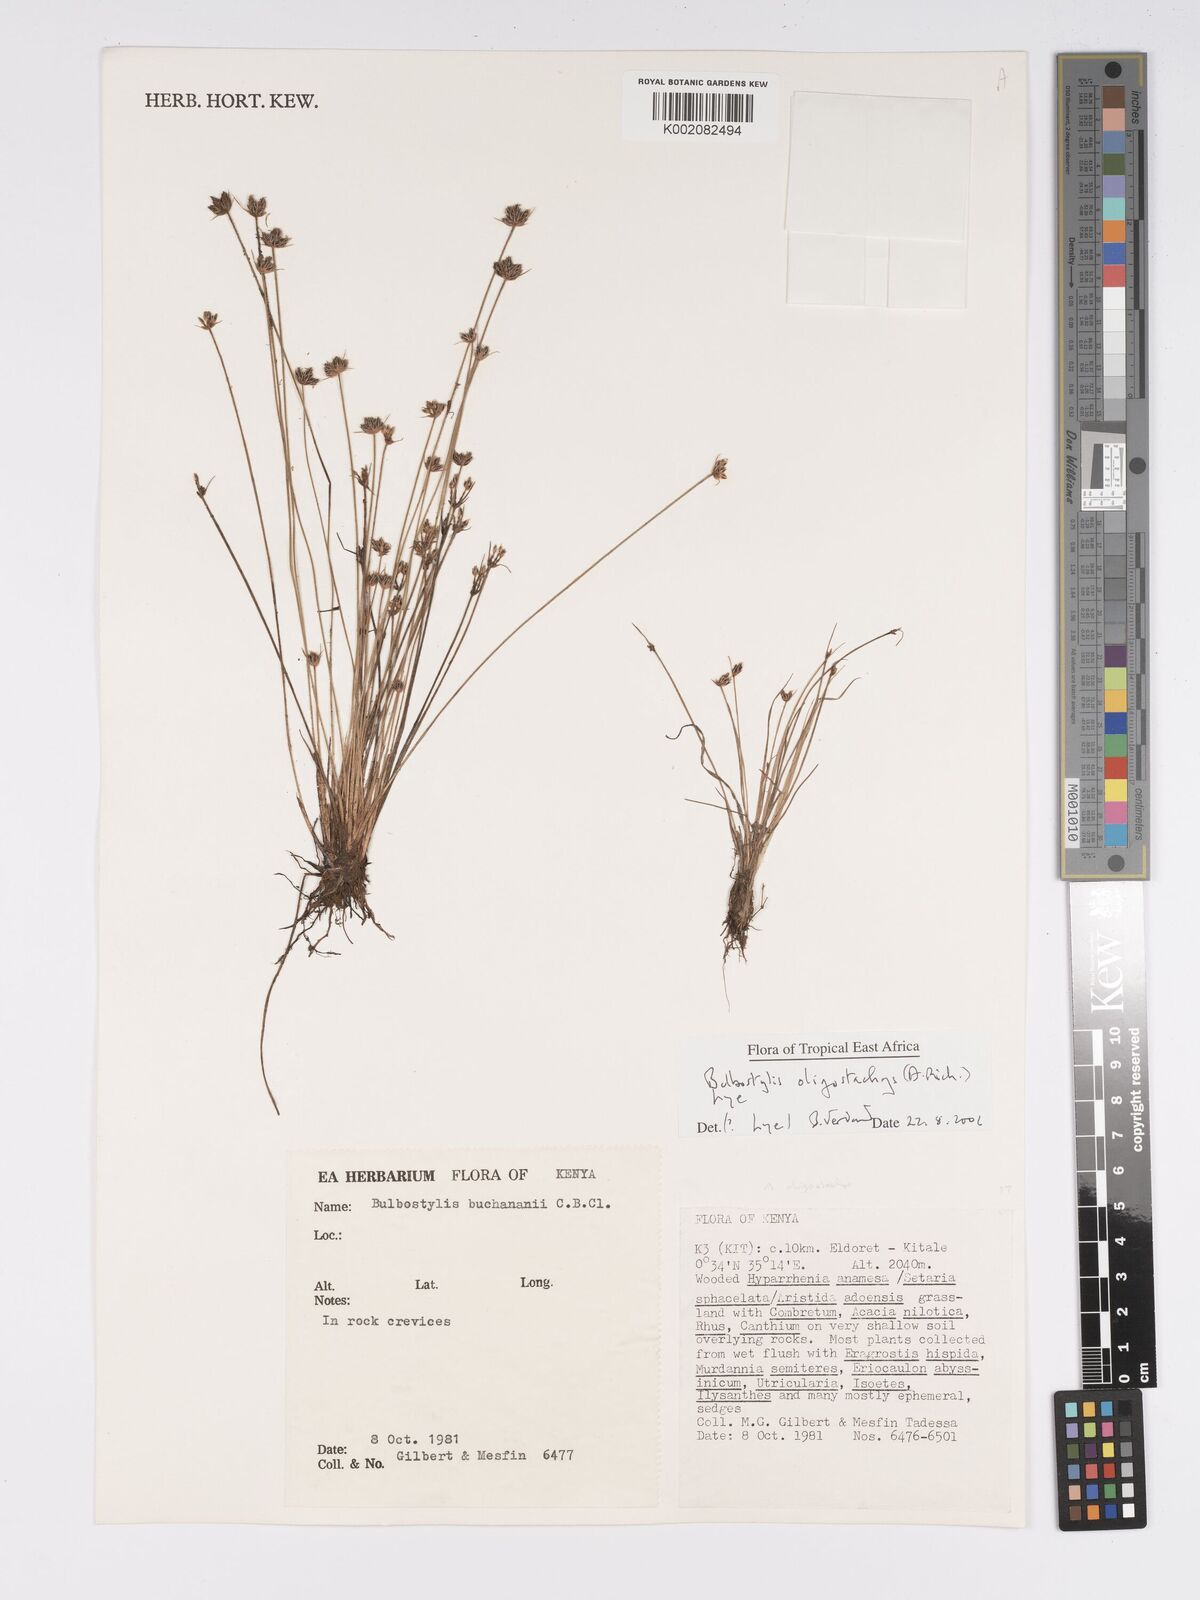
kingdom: Plantae
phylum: Tracheophyta
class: Liliopsida
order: Poales
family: Cyperaceae
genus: Bulbostylis
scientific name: Bulbostylis oligostachys
